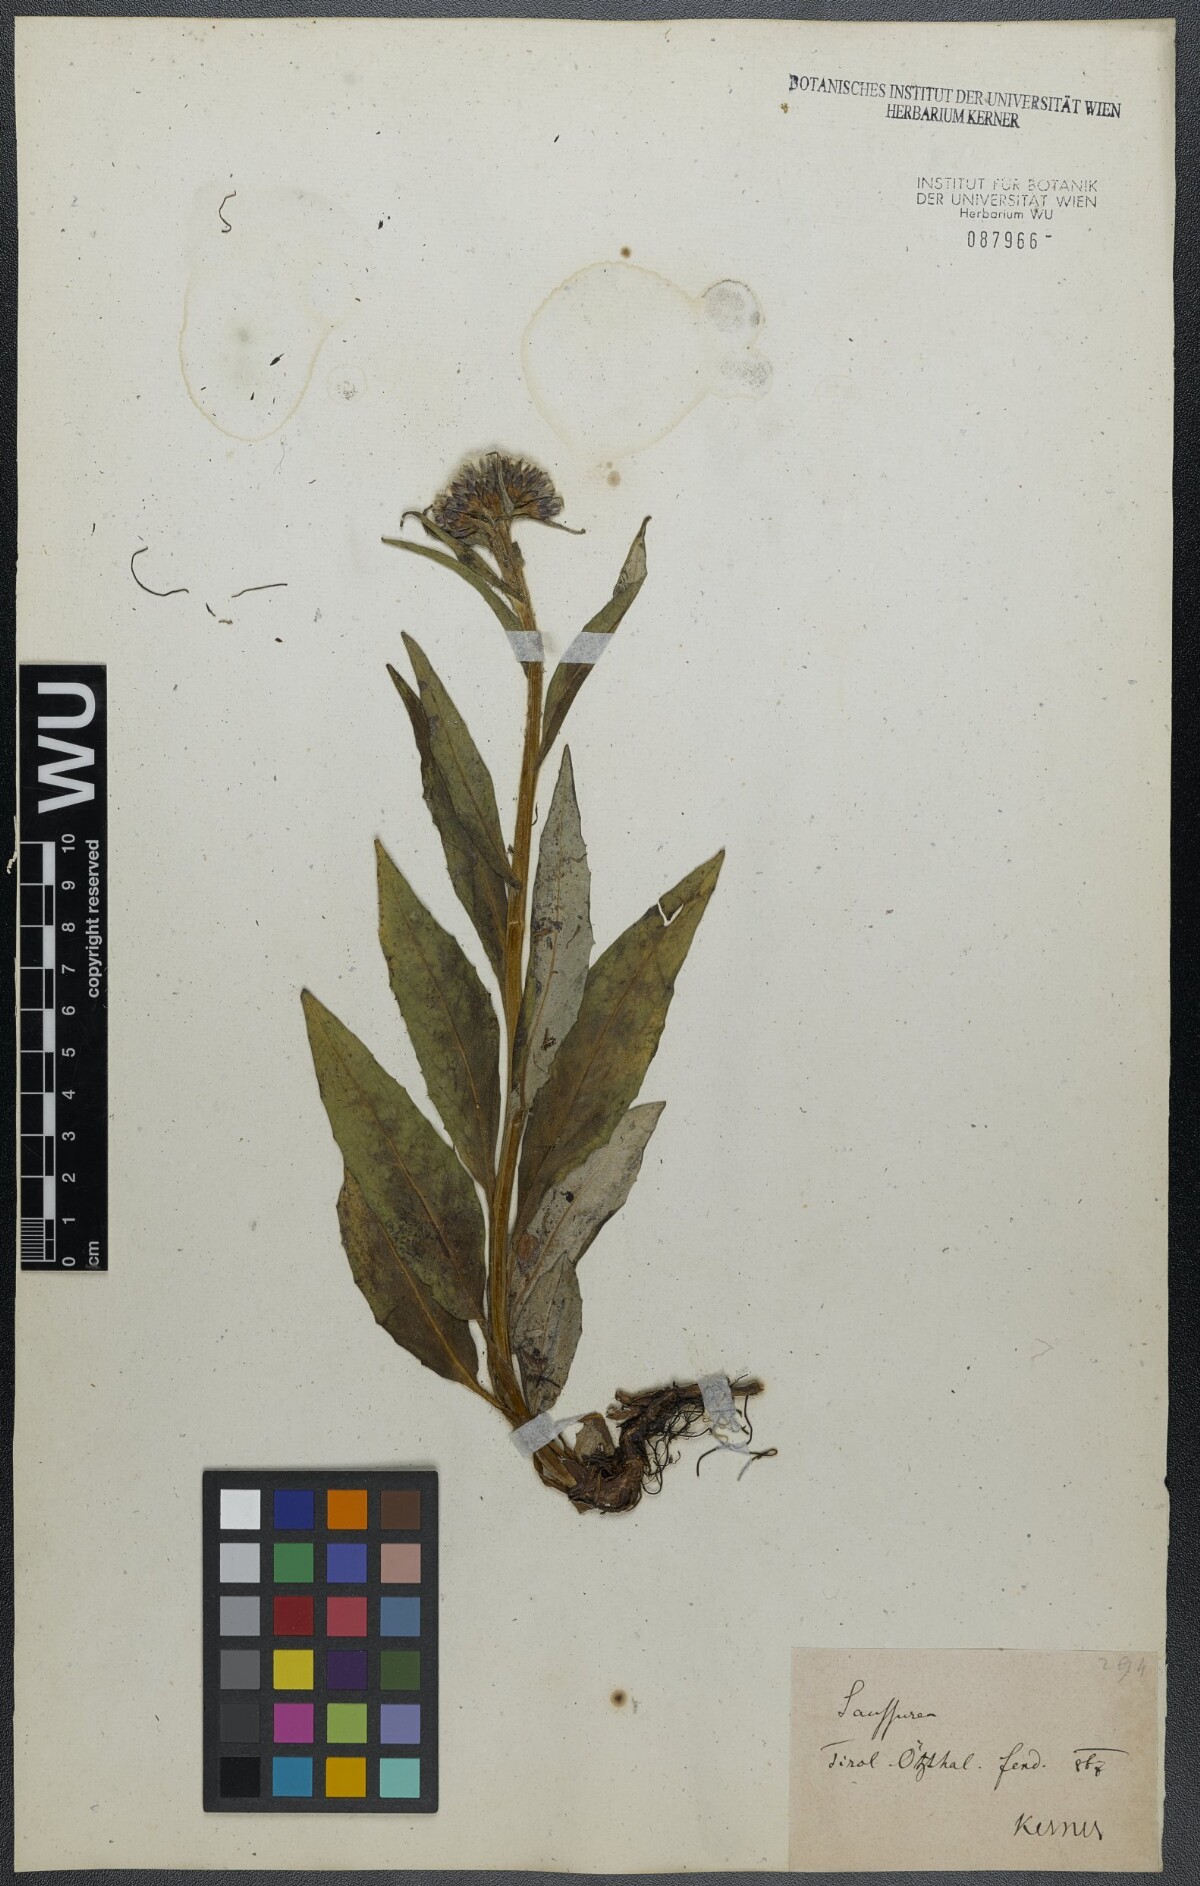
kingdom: Plantae
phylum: Tracheophyta
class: Magnoliopsida
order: Asterales
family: Asteraceae
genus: Saussurea
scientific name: Saussurea alpina
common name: Alpine saw-wort
